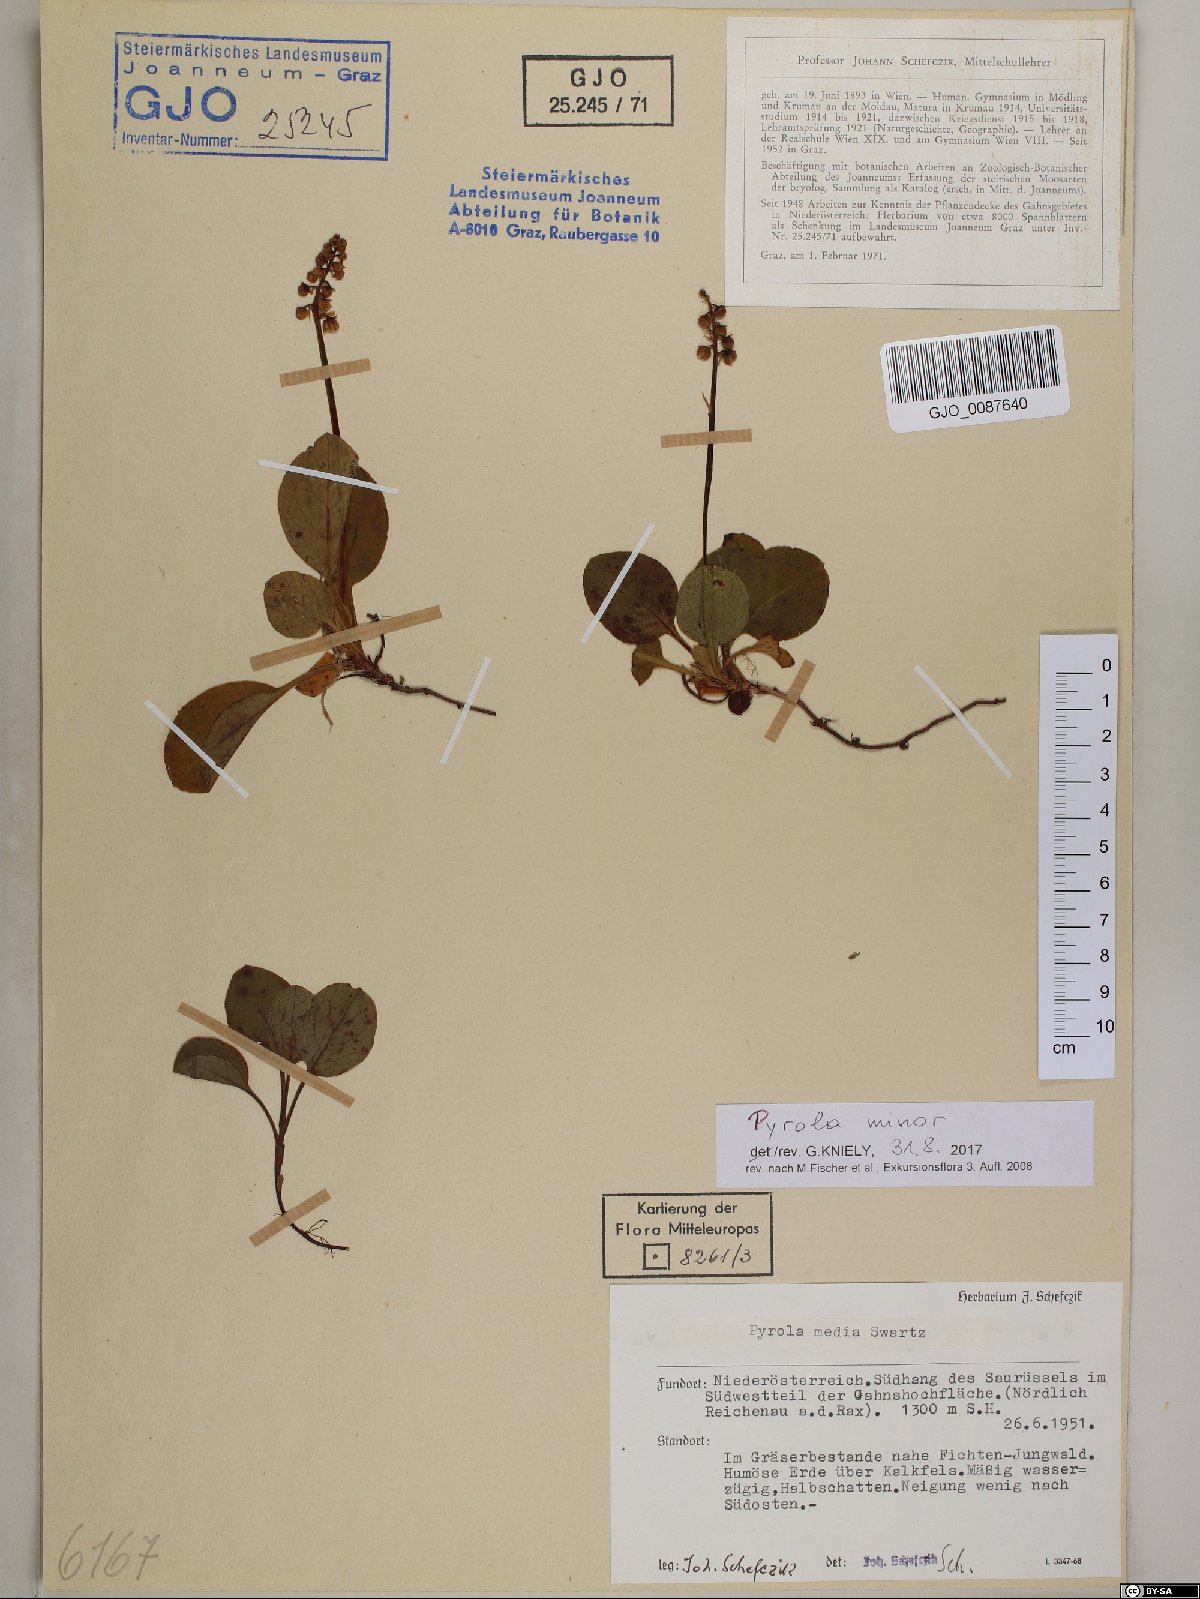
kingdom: Plantae
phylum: Tracheophyta
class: Magnoliopsida
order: Ericales
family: Ericaceae
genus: Pyrola
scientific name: Pyrola minor
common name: Common wintergreen
